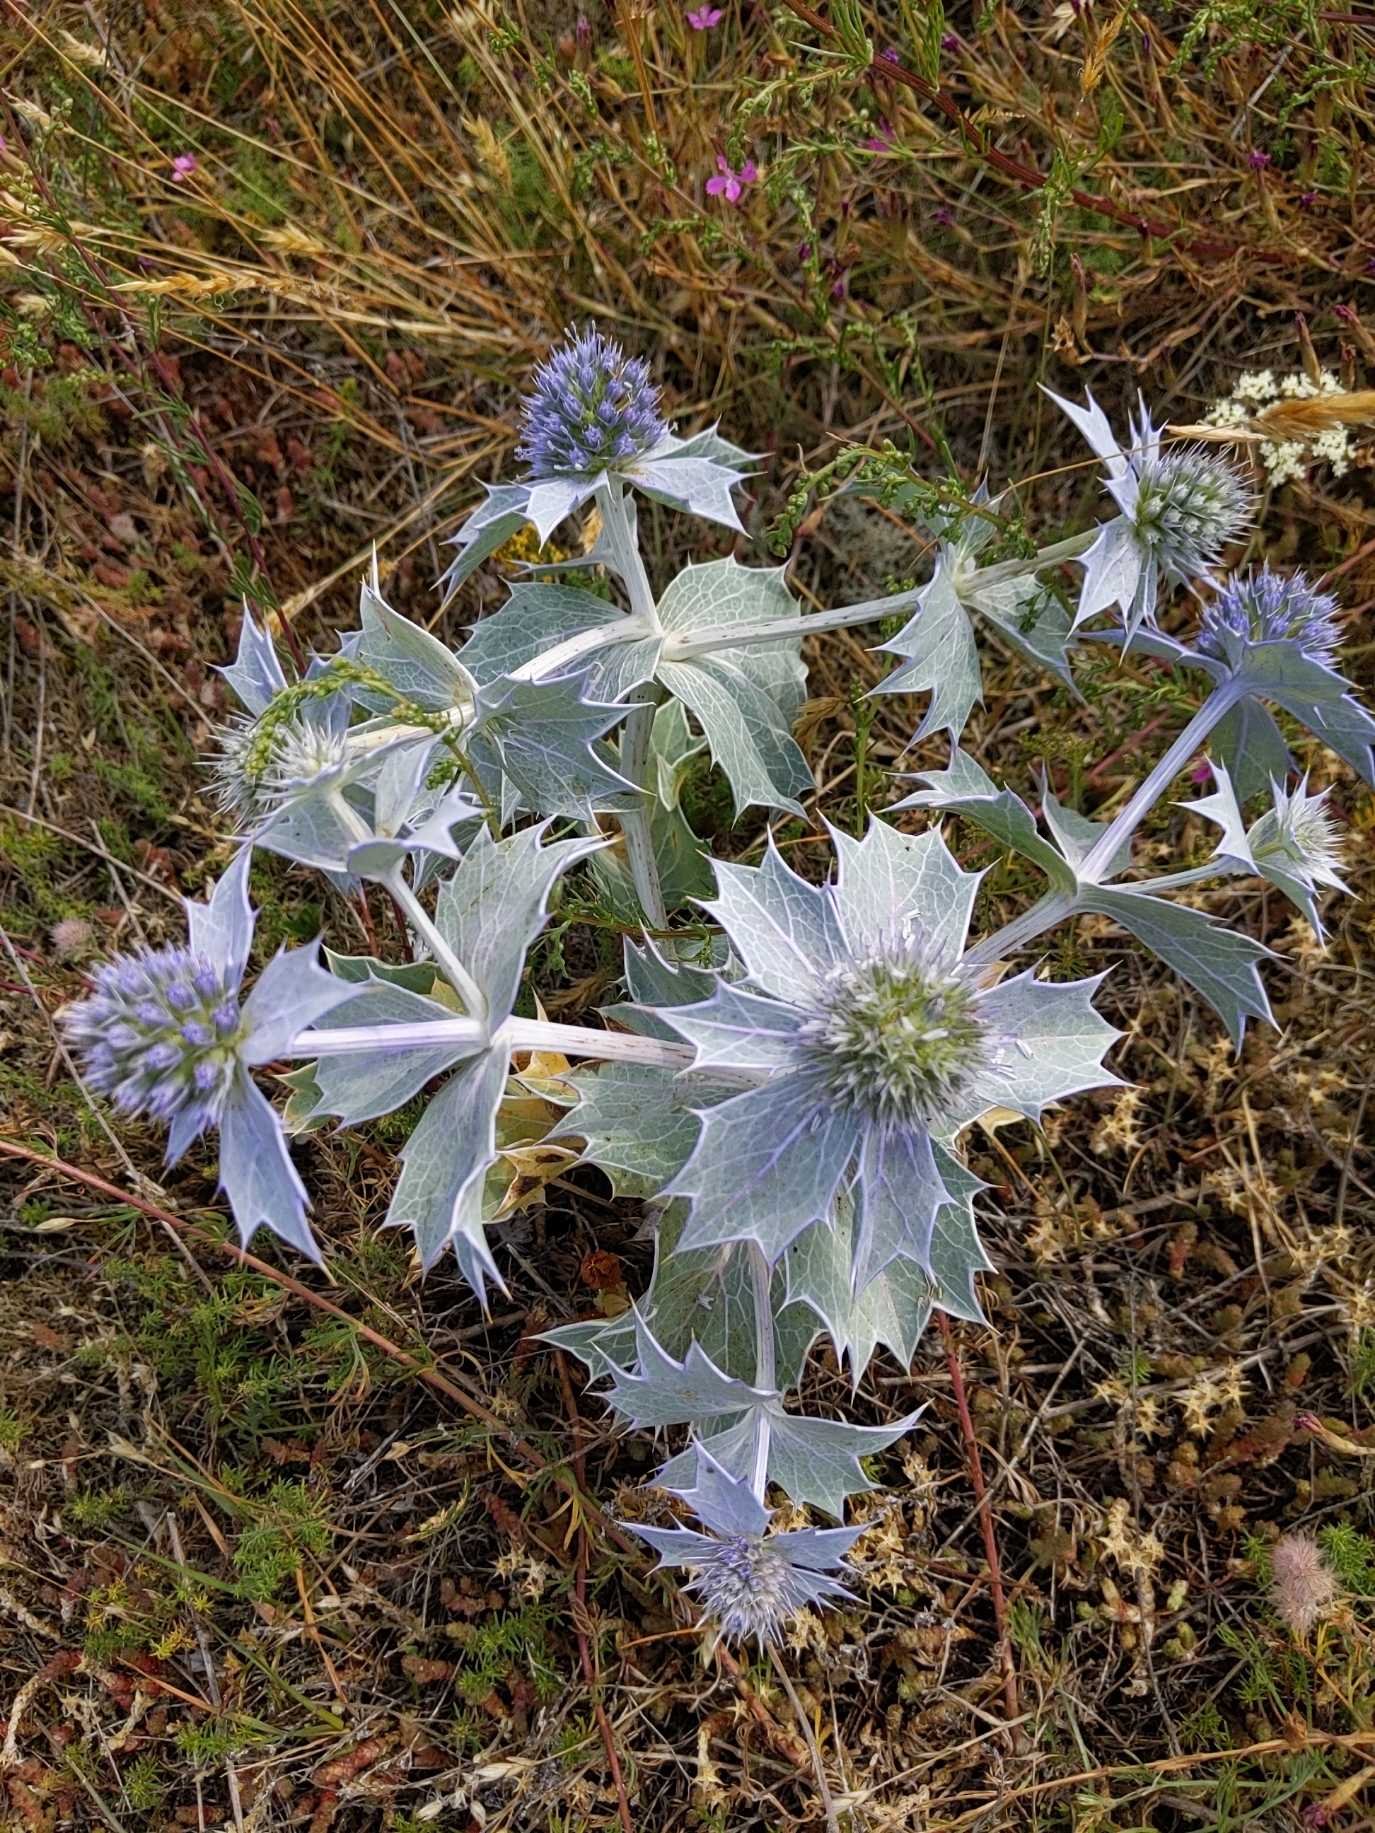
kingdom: Plantae
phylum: Tracheophyta
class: Magnoliopsida
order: Apiales
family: Apiaceae
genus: Eryngium
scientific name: Eryngium maritimum
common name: Strand-mandstro
